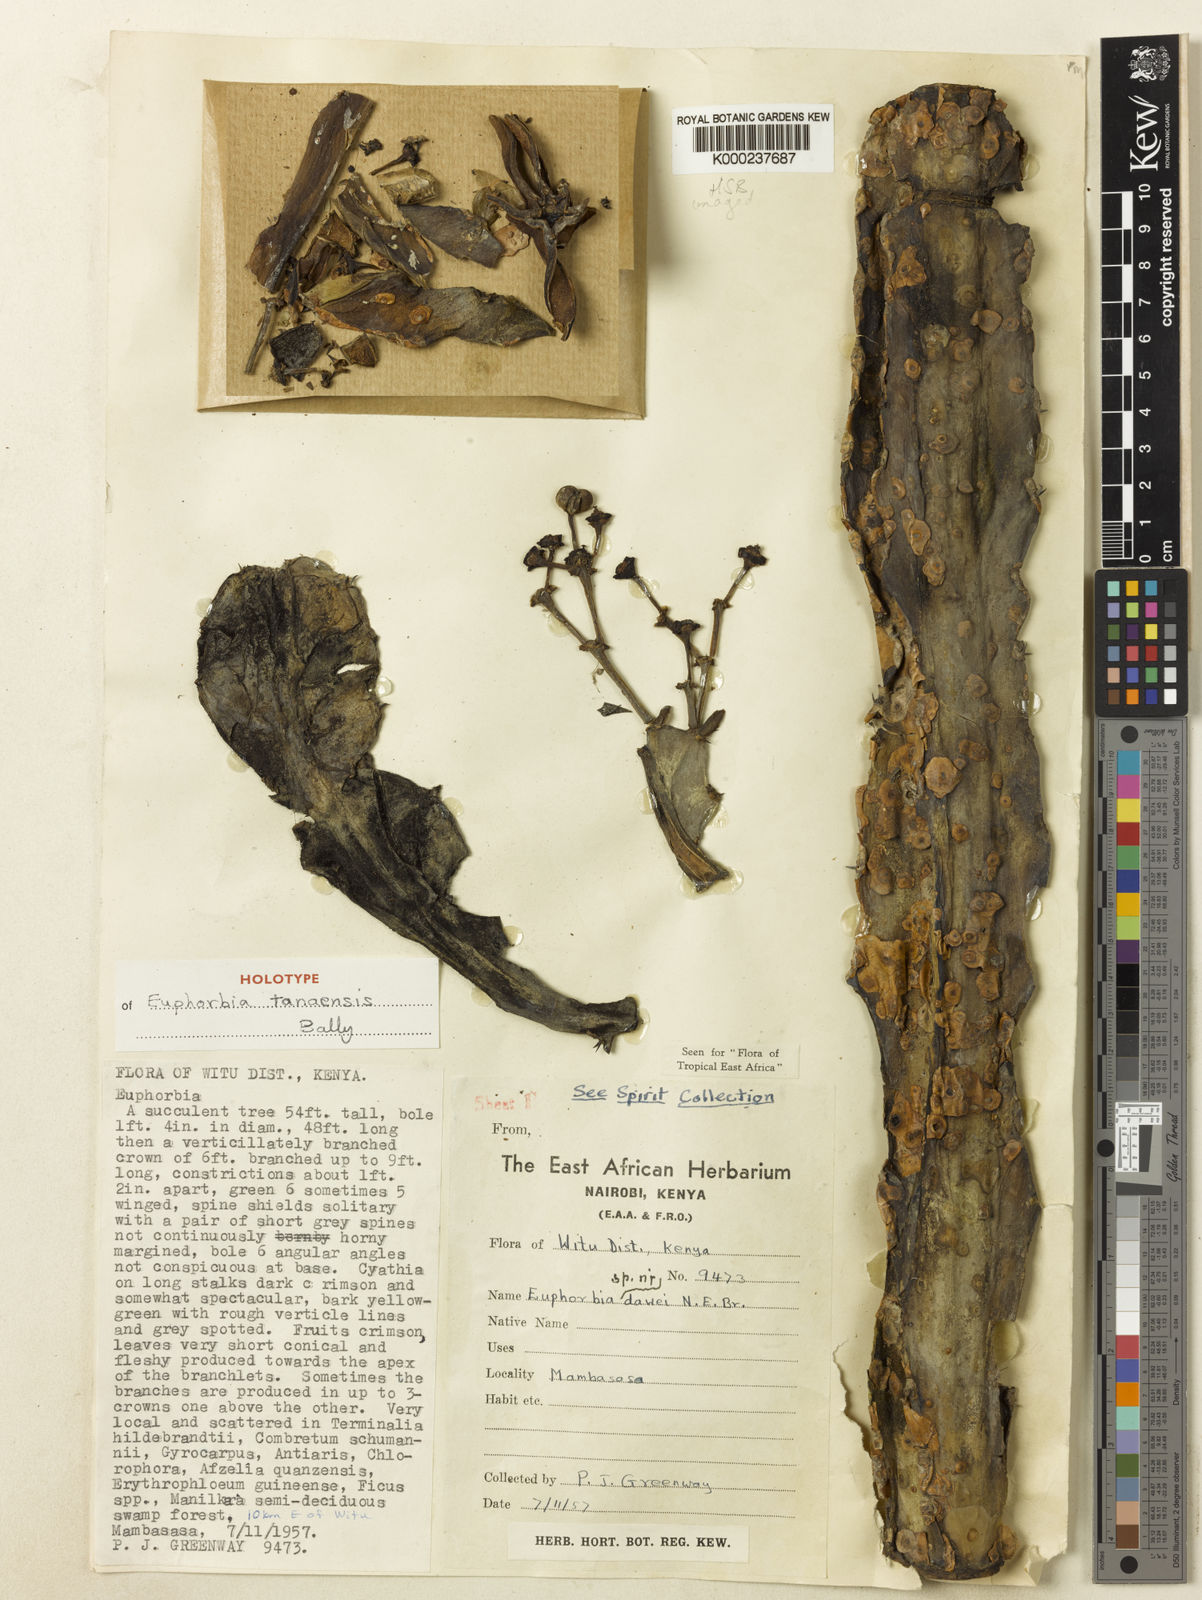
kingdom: Plantae
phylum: Tracheophyta
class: Magnoliopsida
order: Malpighiales
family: Euphorbiaceae
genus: Euphorbia
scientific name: Euphorbia tanaensis
